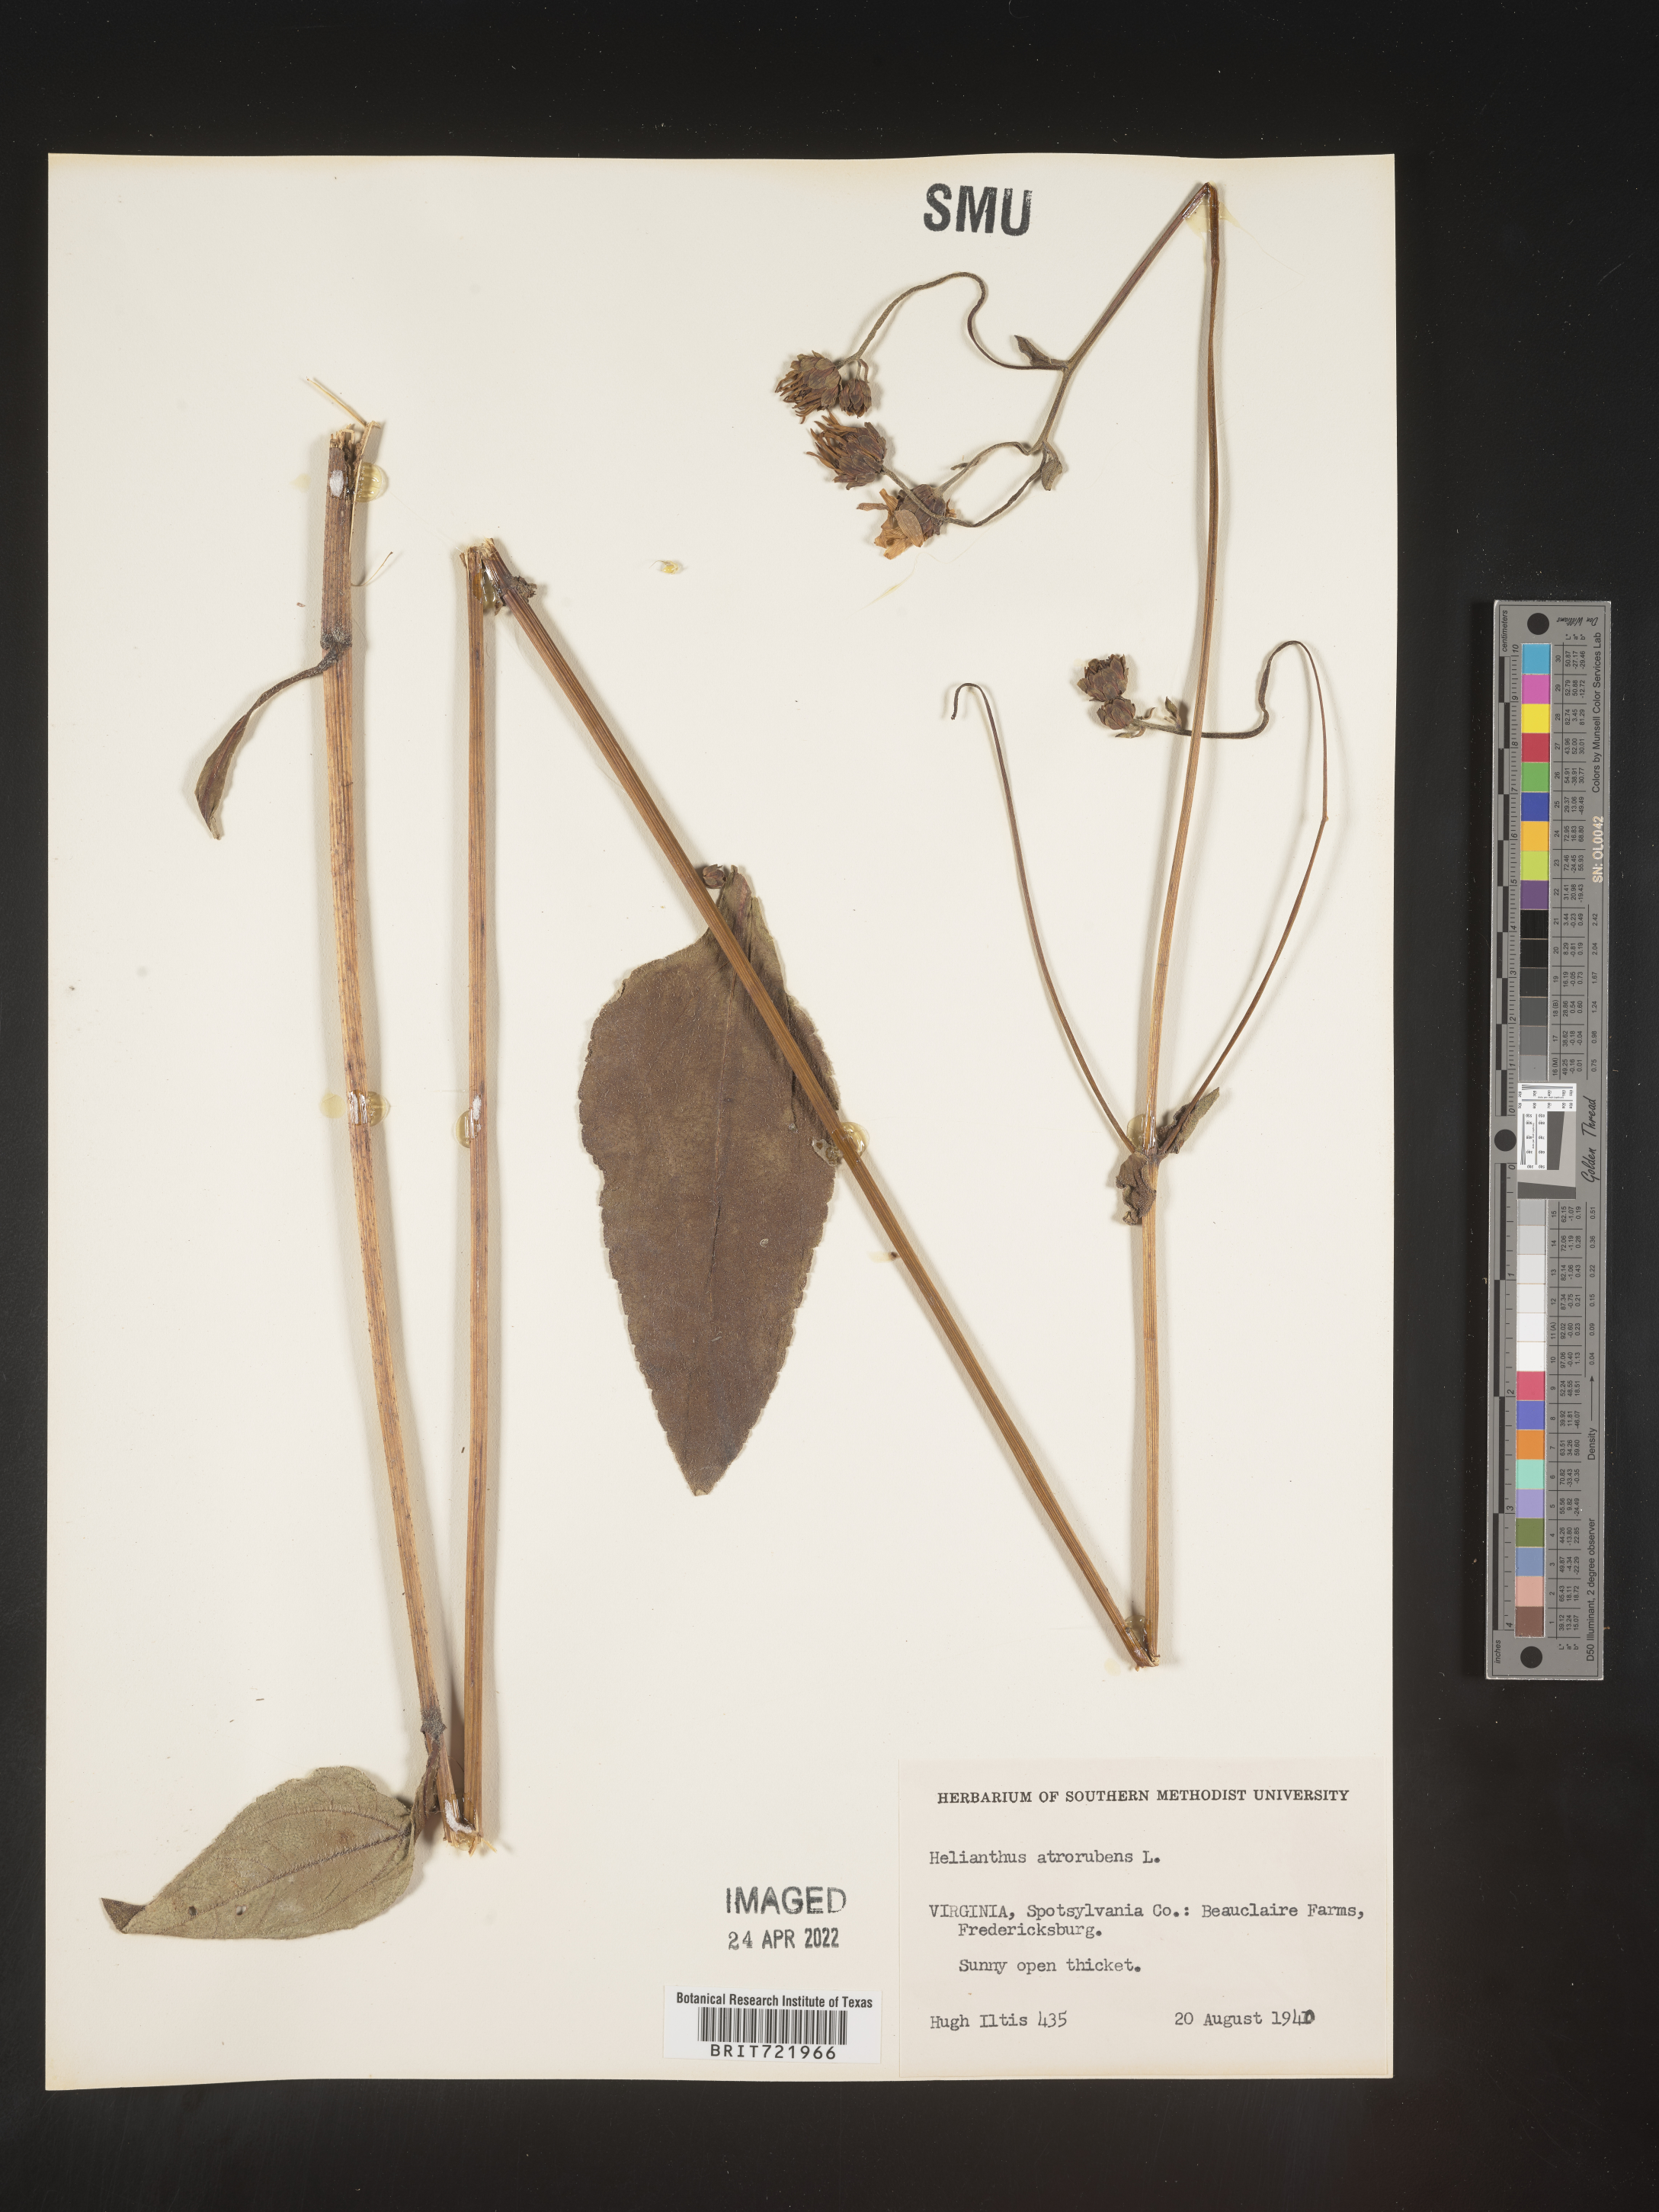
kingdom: Plantae
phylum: Tracheophyta
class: Magnoliopsida
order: Asterales
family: Asteraceae
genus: Helianthus
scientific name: Helianthus atrorubens
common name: Dark-eyed sunflower
